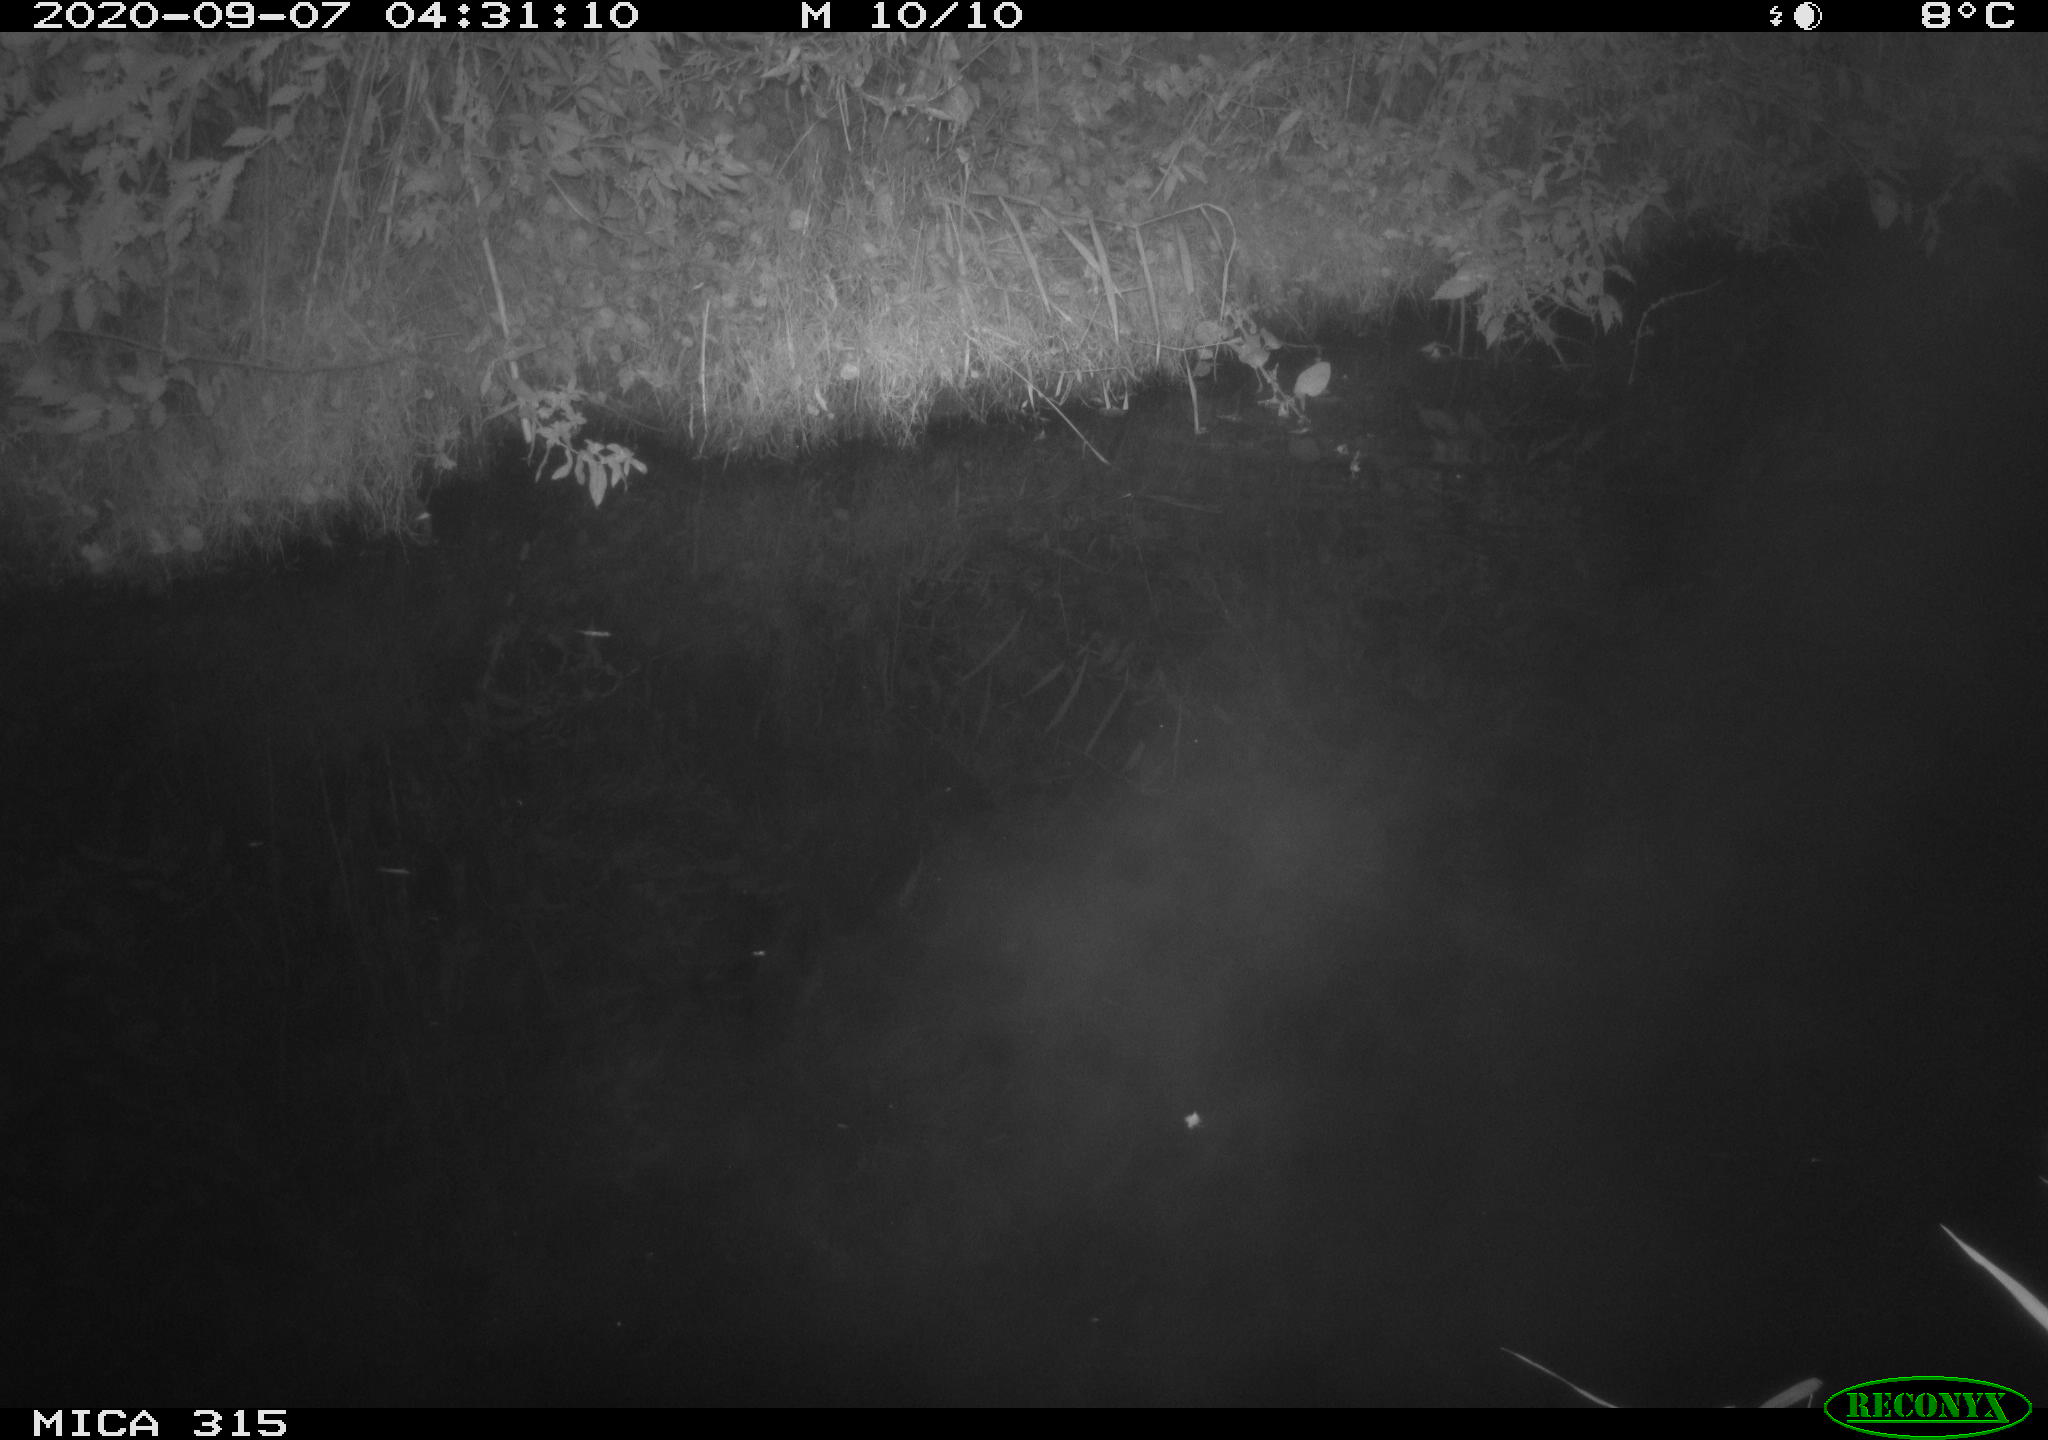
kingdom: Animalia
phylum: Chordata
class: Aves
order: Anseriformes
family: Anatidae
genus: Anas
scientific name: Anas platyrhynchos
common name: Mallard
